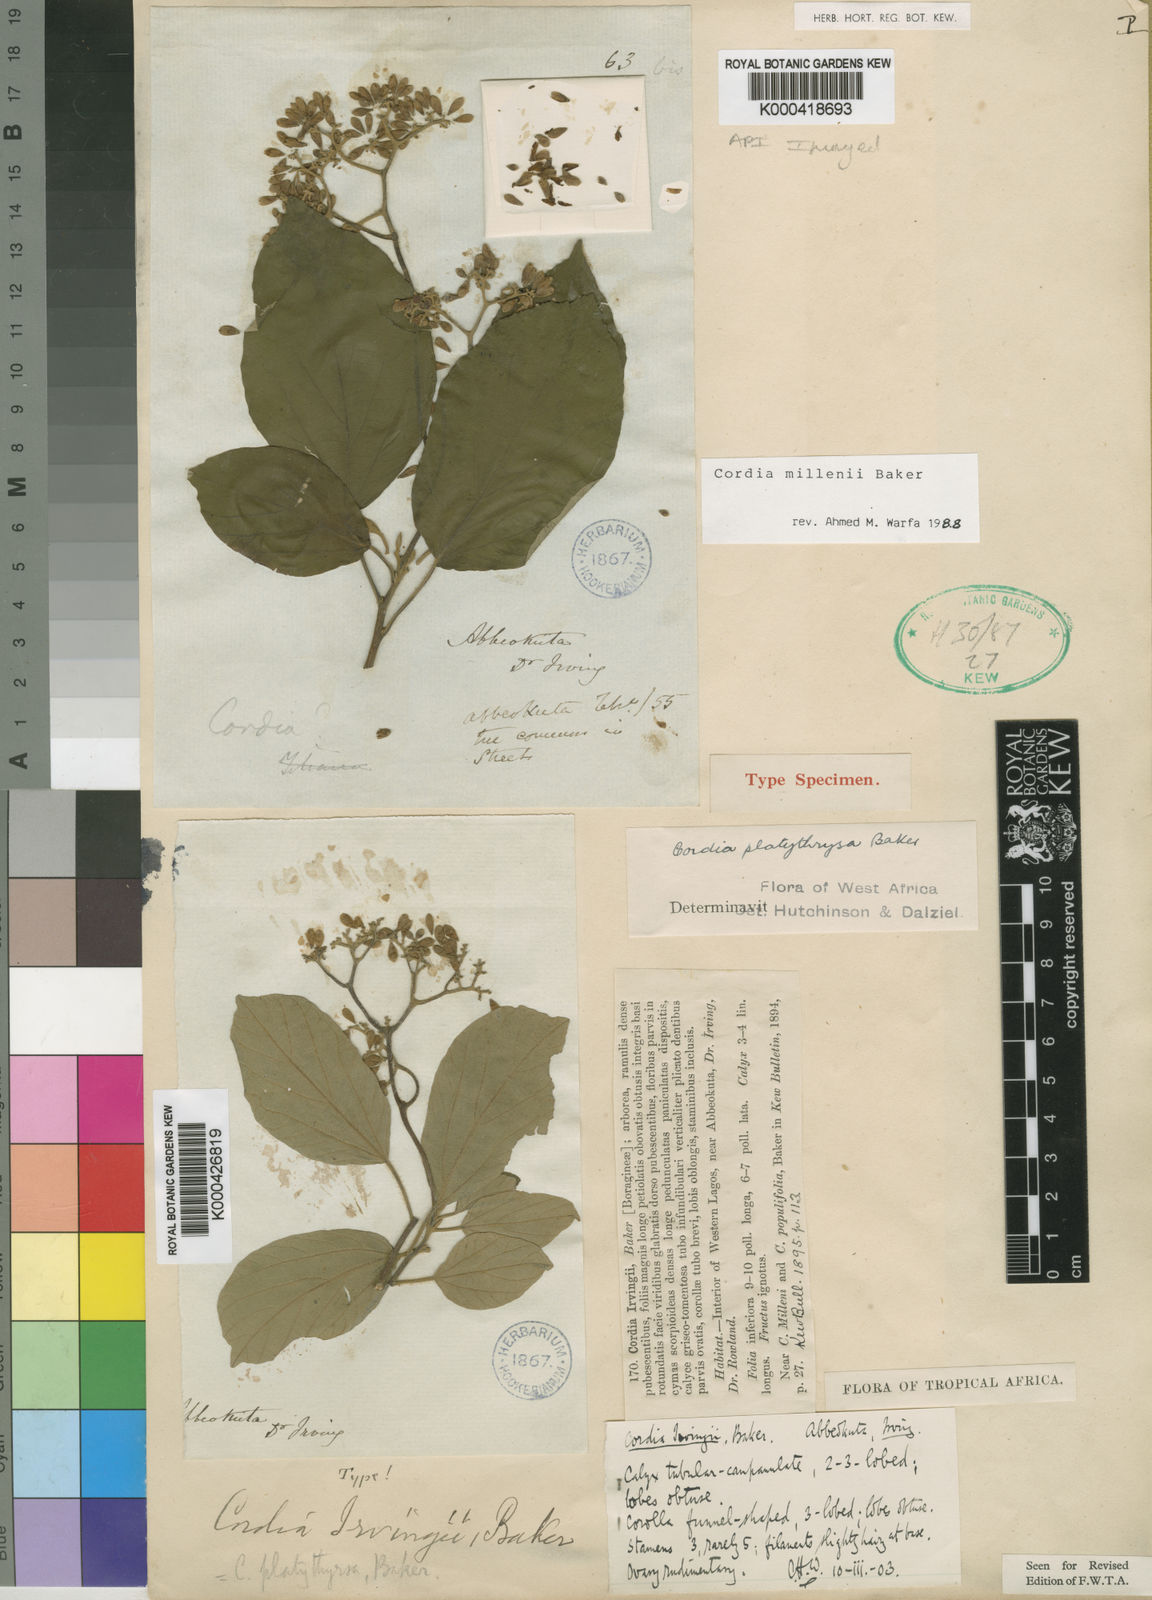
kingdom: Plantae
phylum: Tracheophyta
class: Magnoliopsida
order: Boraginales
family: Cordiaceae
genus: Cordia
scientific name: Cordia millenii
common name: Drum tree
